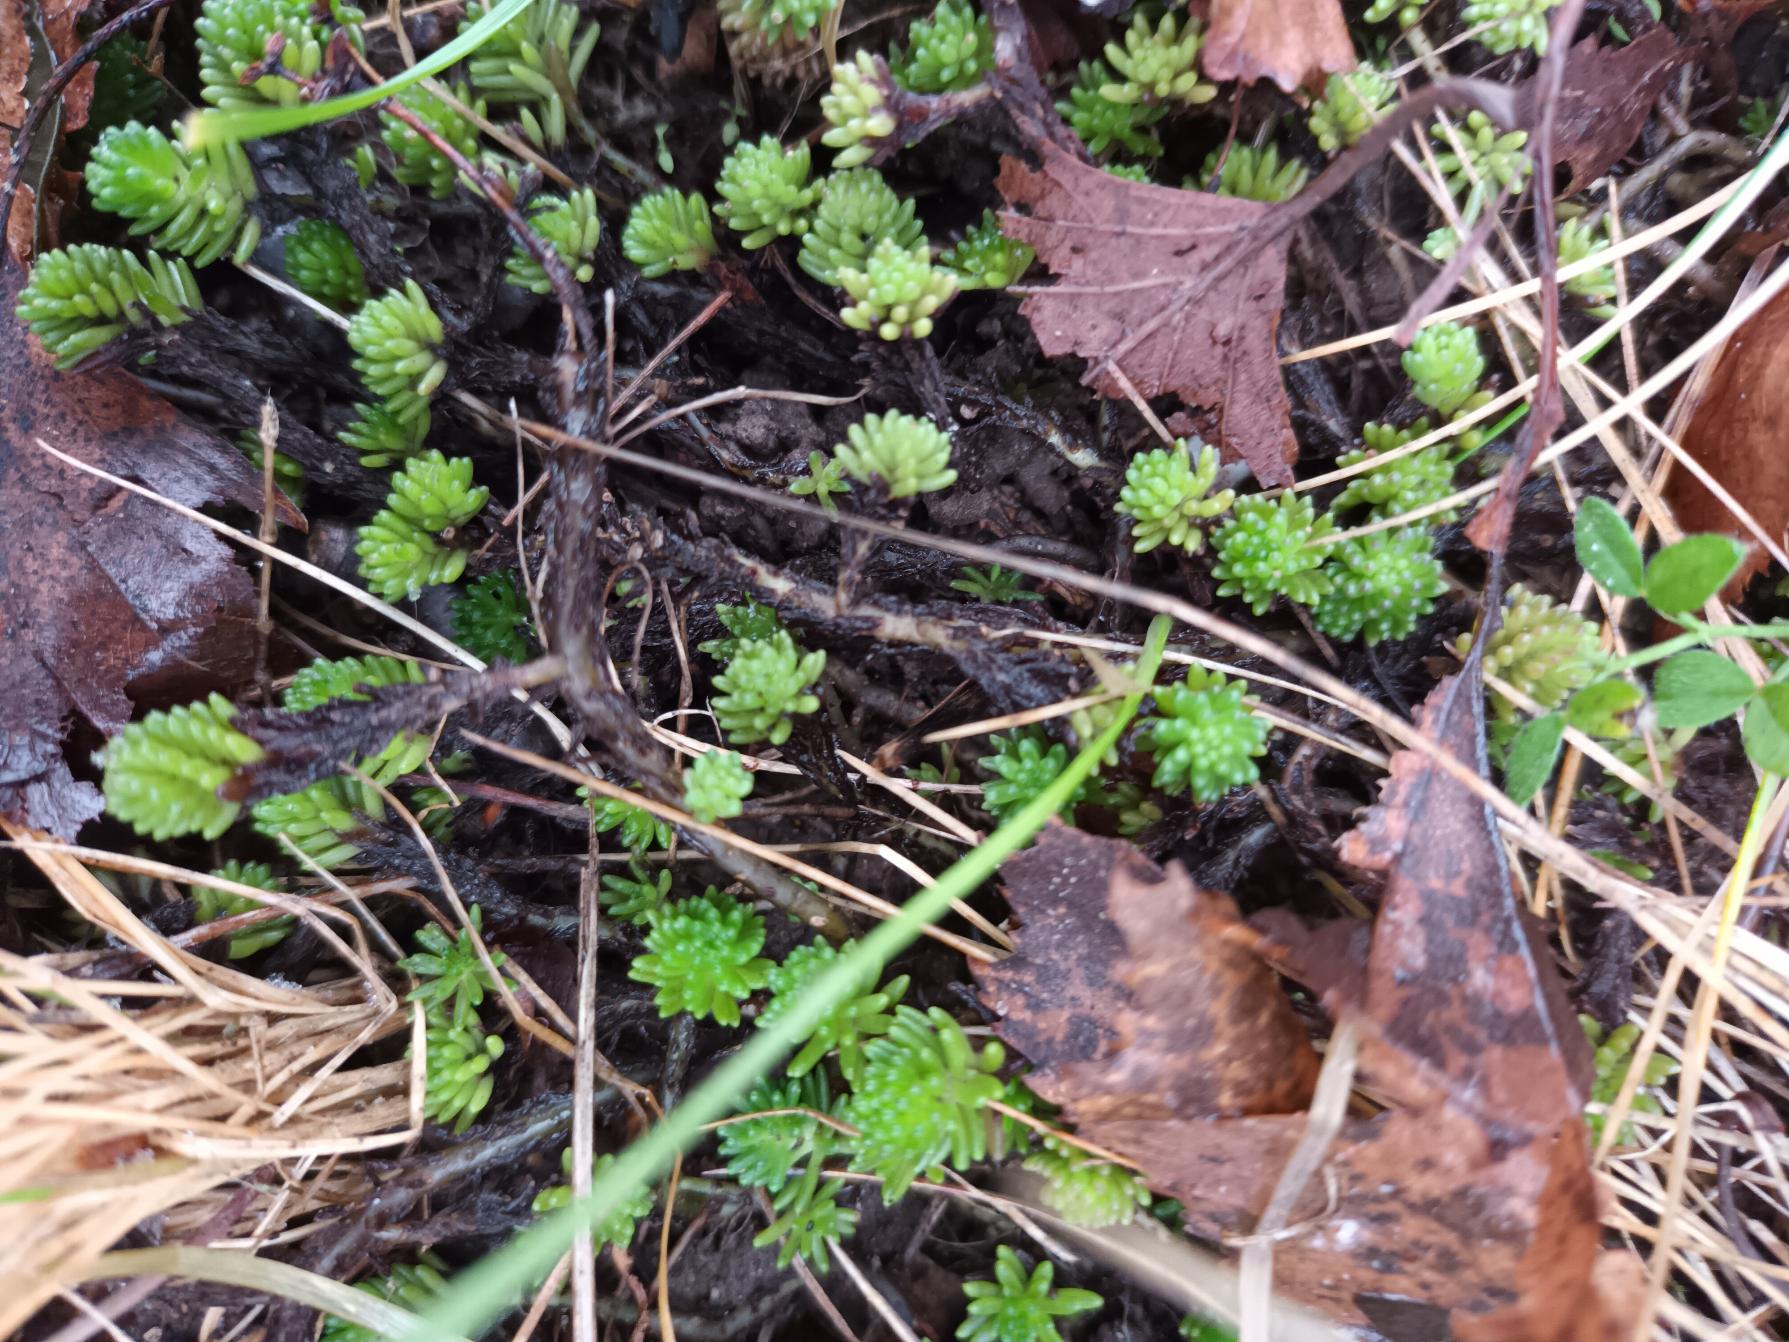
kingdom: Plantae
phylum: Tracheophyta
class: Magnoliopsida
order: Saxifragales
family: Crassulaceae
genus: Sedum
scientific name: Sedum sexangulare
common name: Seksradet stenurt
